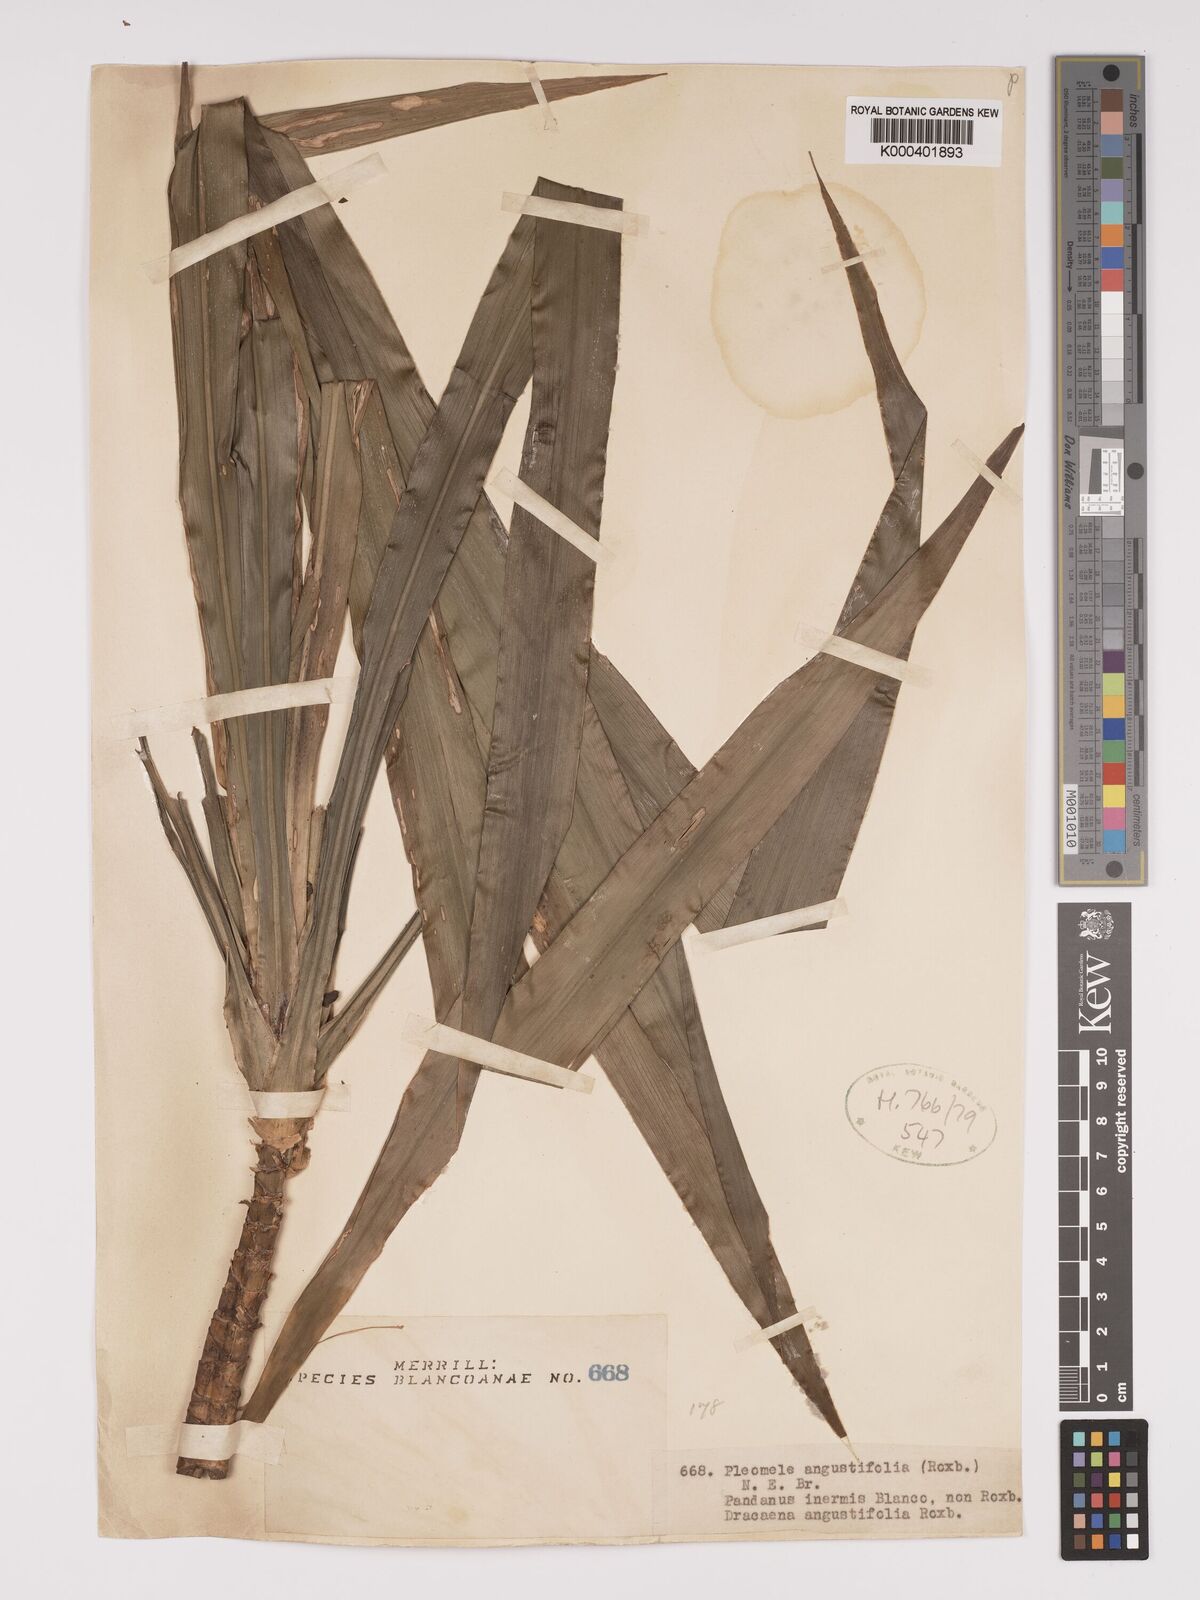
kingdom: Plantae
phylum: Tracheophyta
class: Liliopsida
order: Asparagales
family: Asparagaceae
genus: Dracaena
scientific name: Dracaena angustifolia
